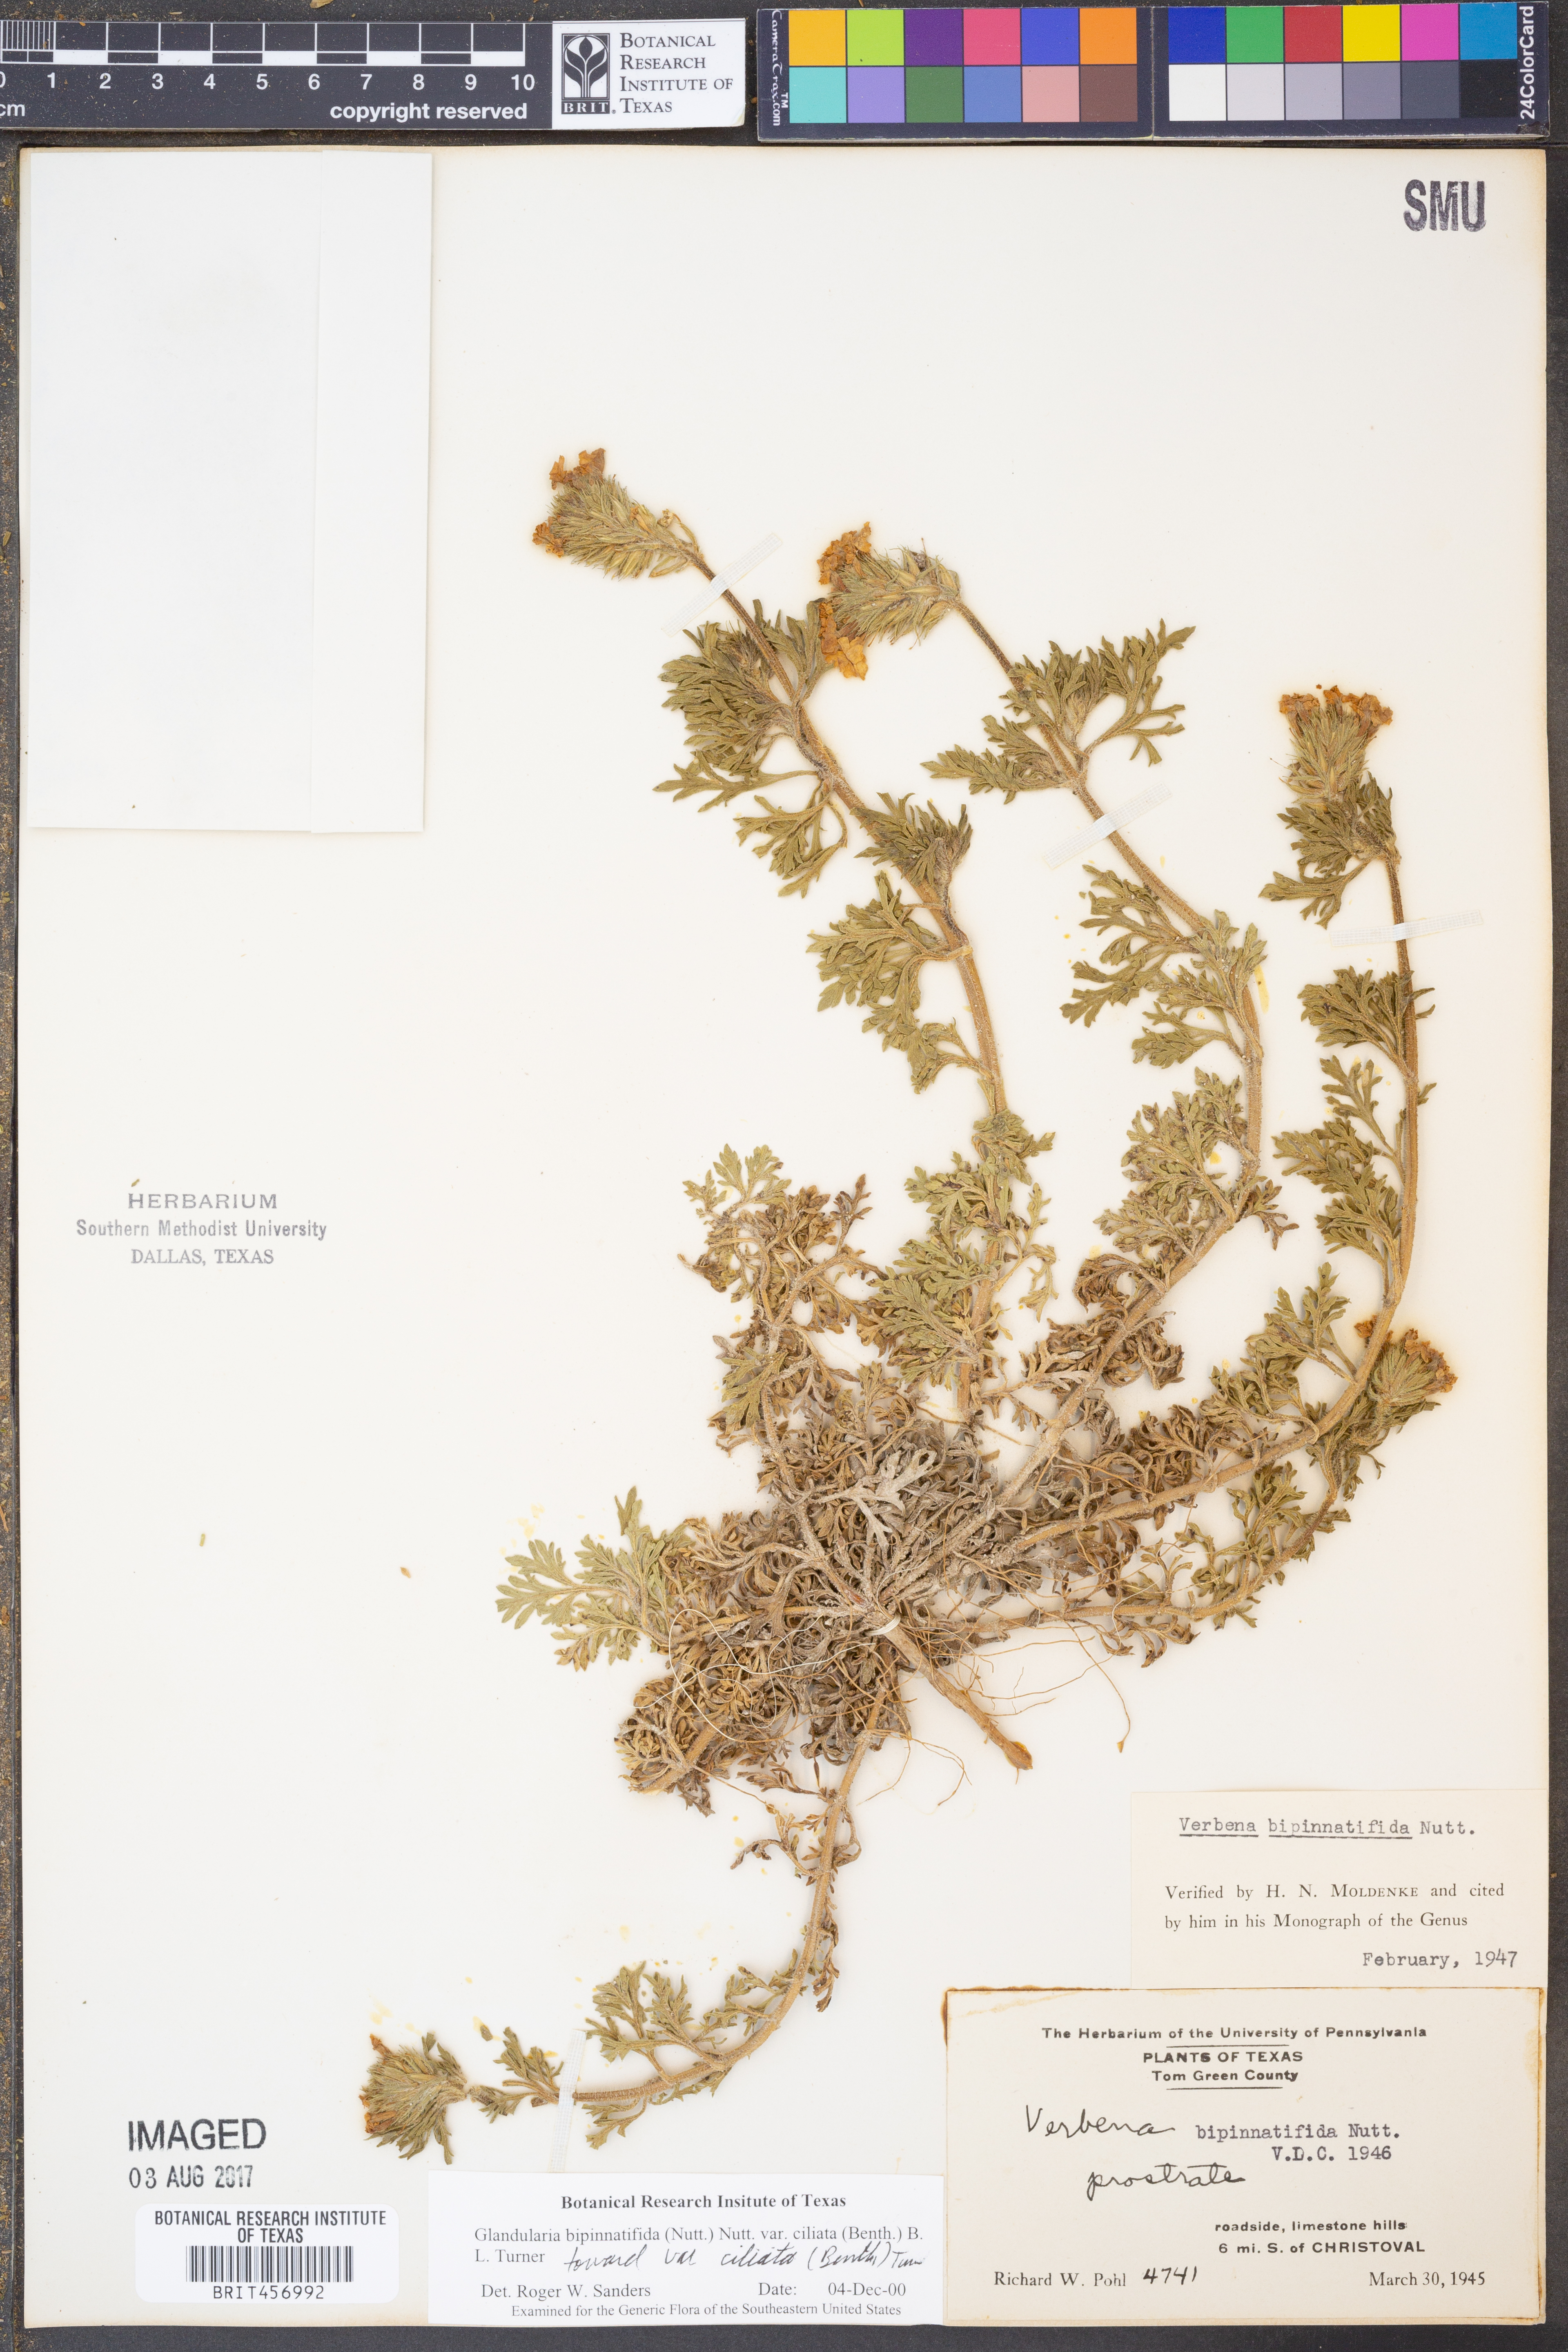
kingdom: Plantae
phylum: Tracheophyta
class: Magnoliopsida
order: Lamiales
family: Verbenaceae
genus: Verbena
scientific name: Verbena bipinnatifida
